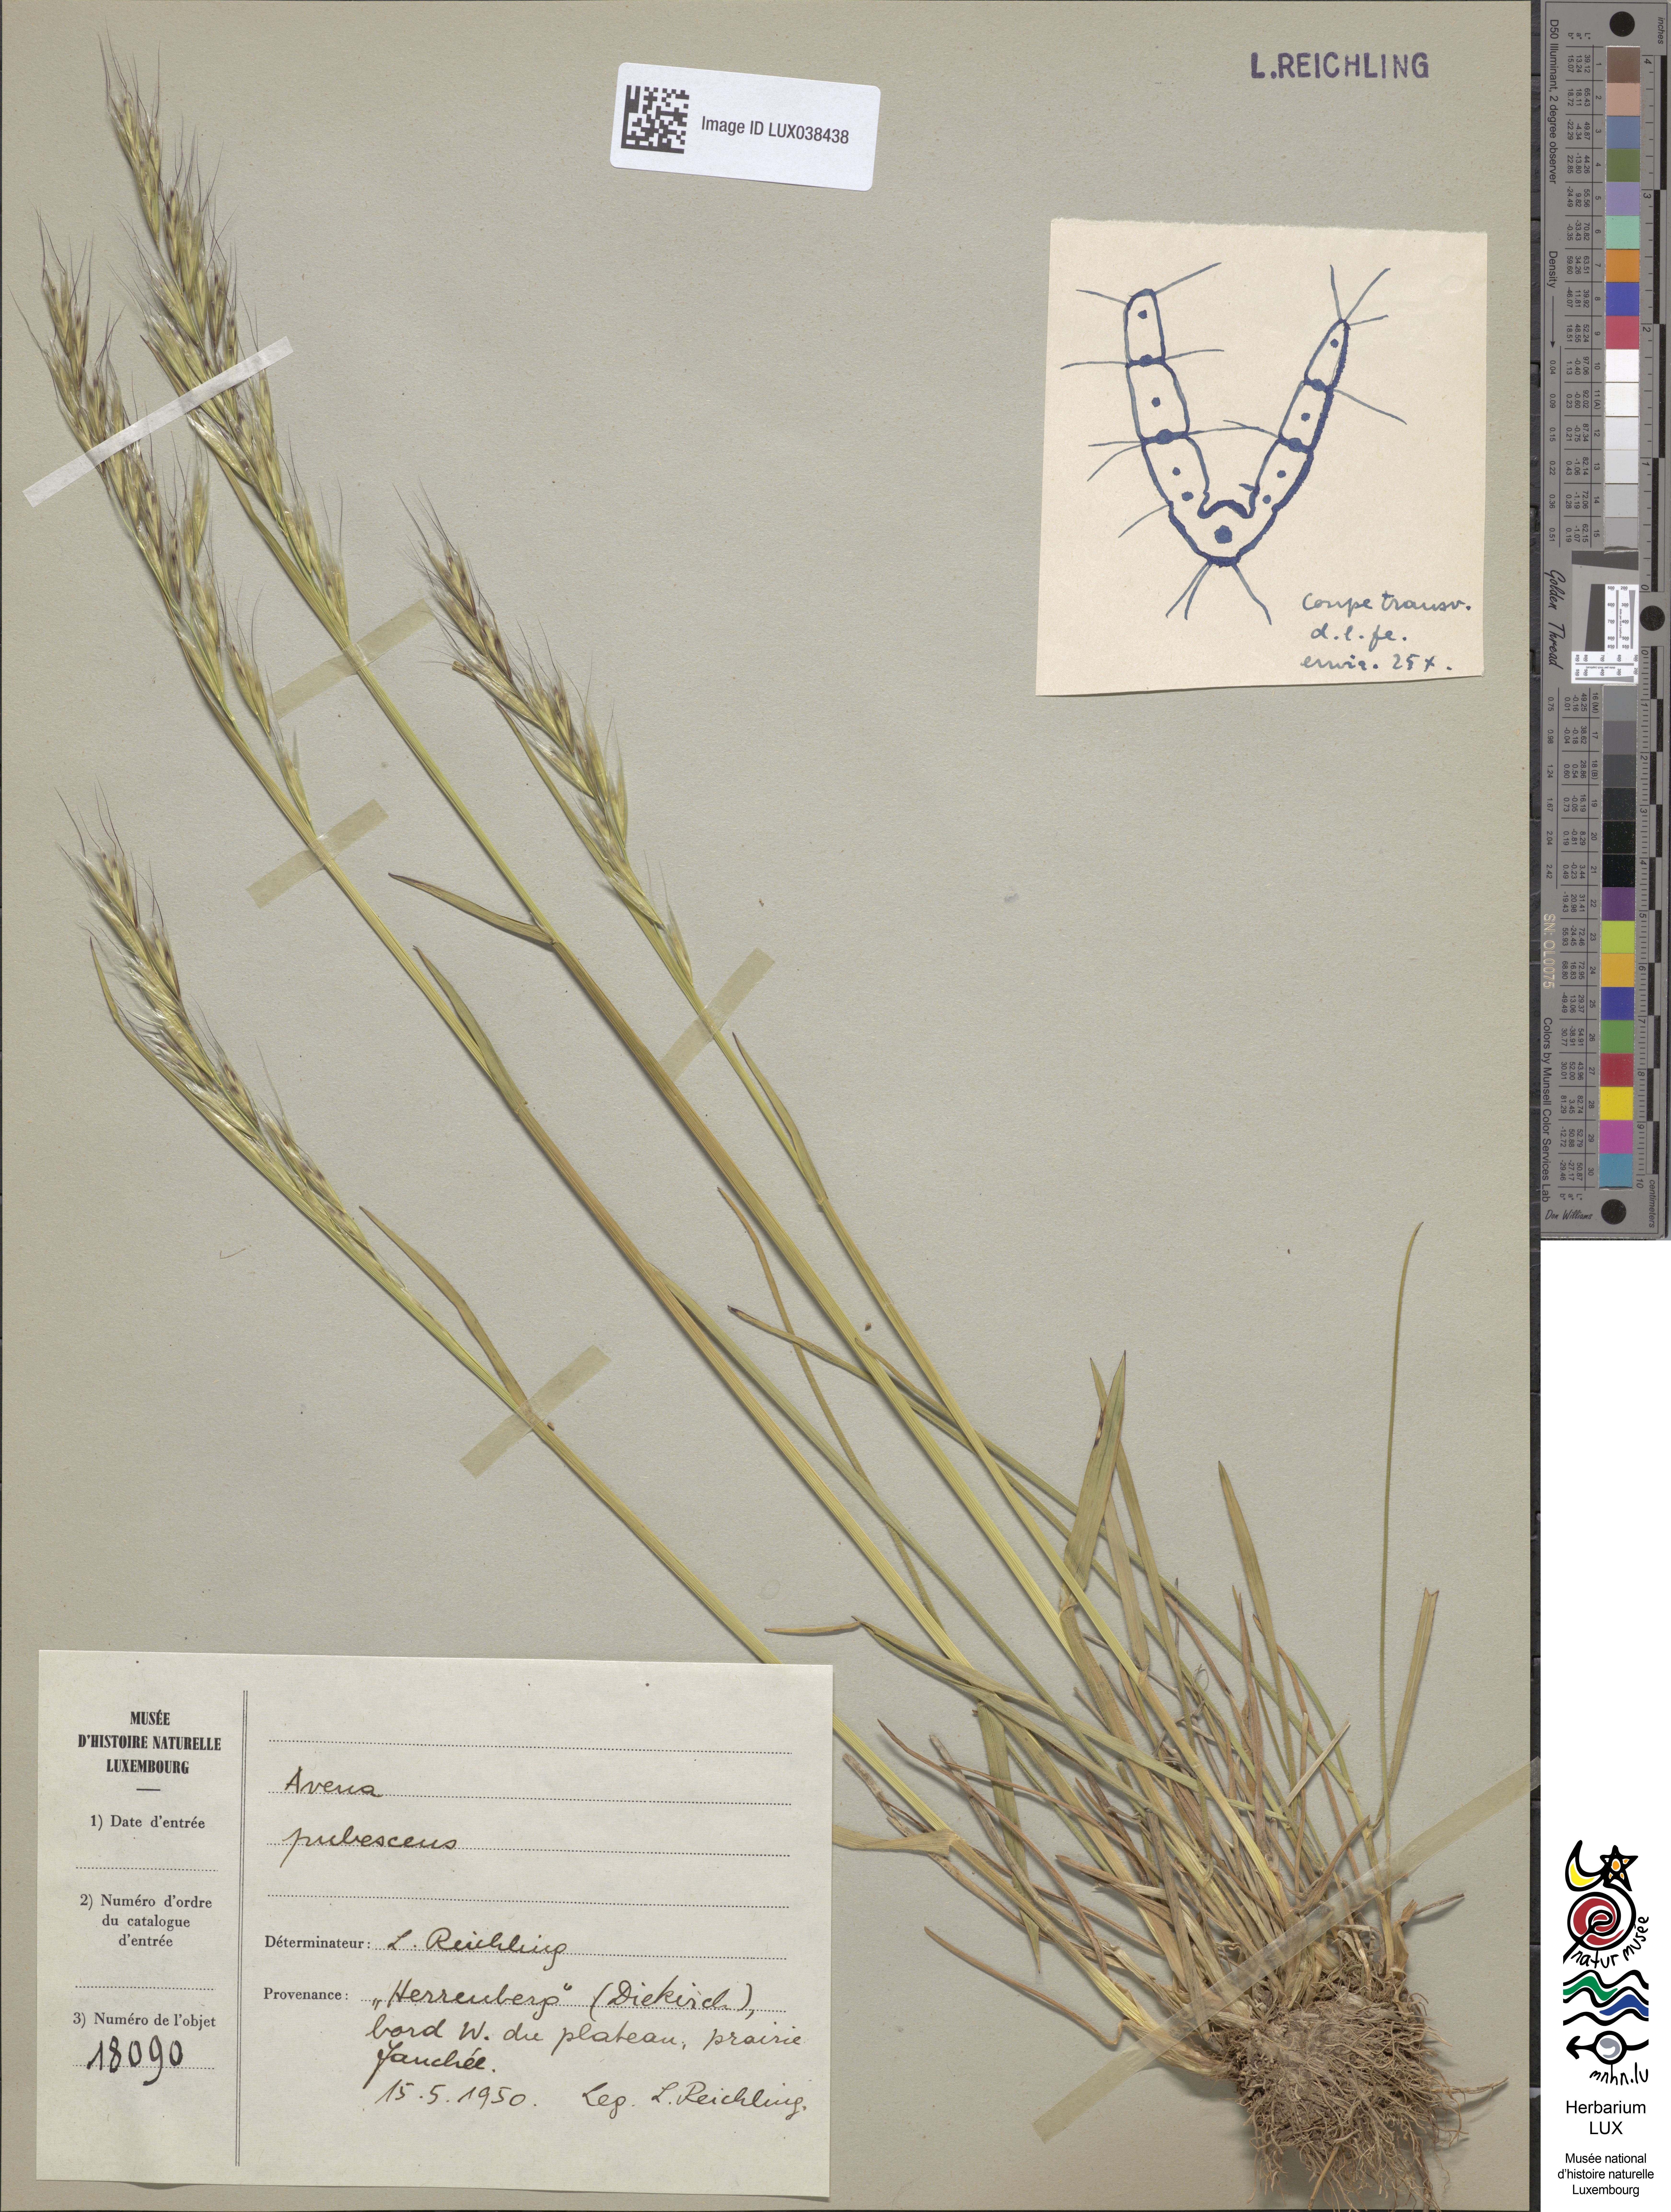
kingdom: Plantae
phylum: Tracheophyta
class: Liliopsida
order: Poales
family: Poaceae
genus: Avenula
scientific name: Avenula pubescens
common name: Downy alpine oatgrass
